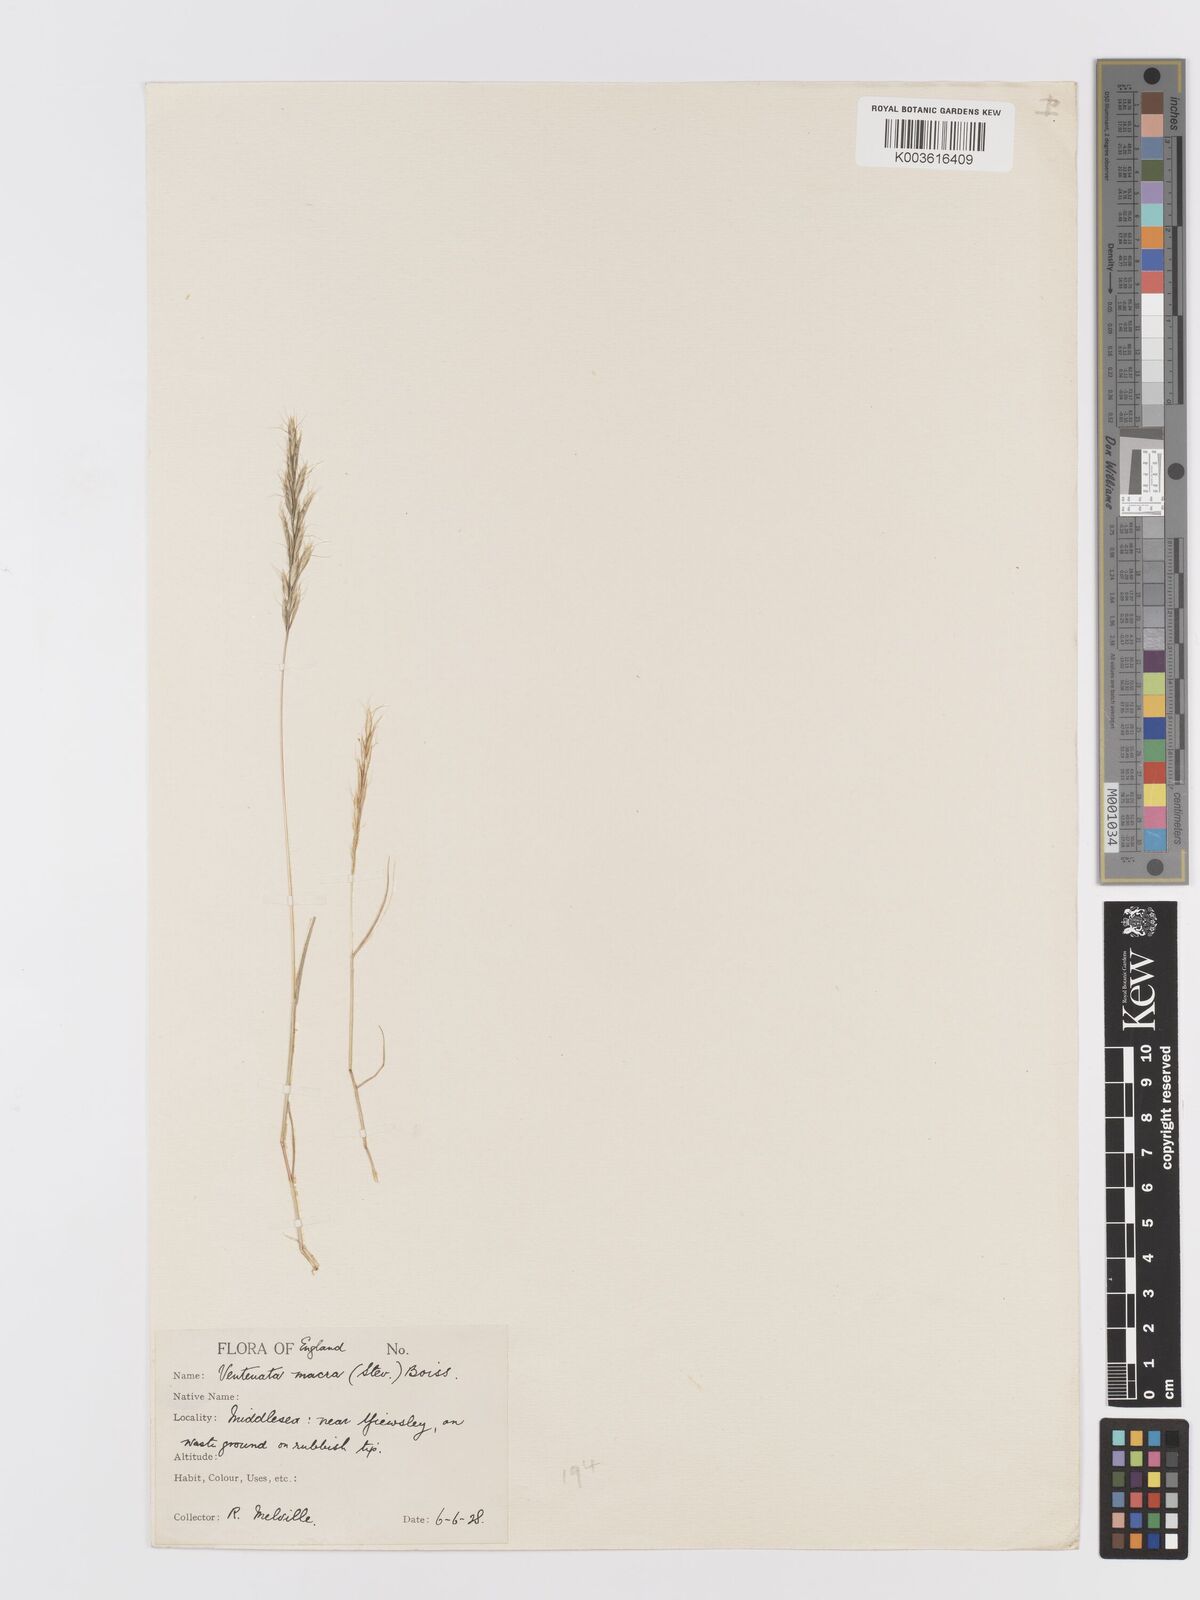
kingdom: Plantae
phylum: Tracheophyta
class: Liliopsida
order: Poales
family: Poaceae
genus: Ventenata
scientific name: Ventenata macra
